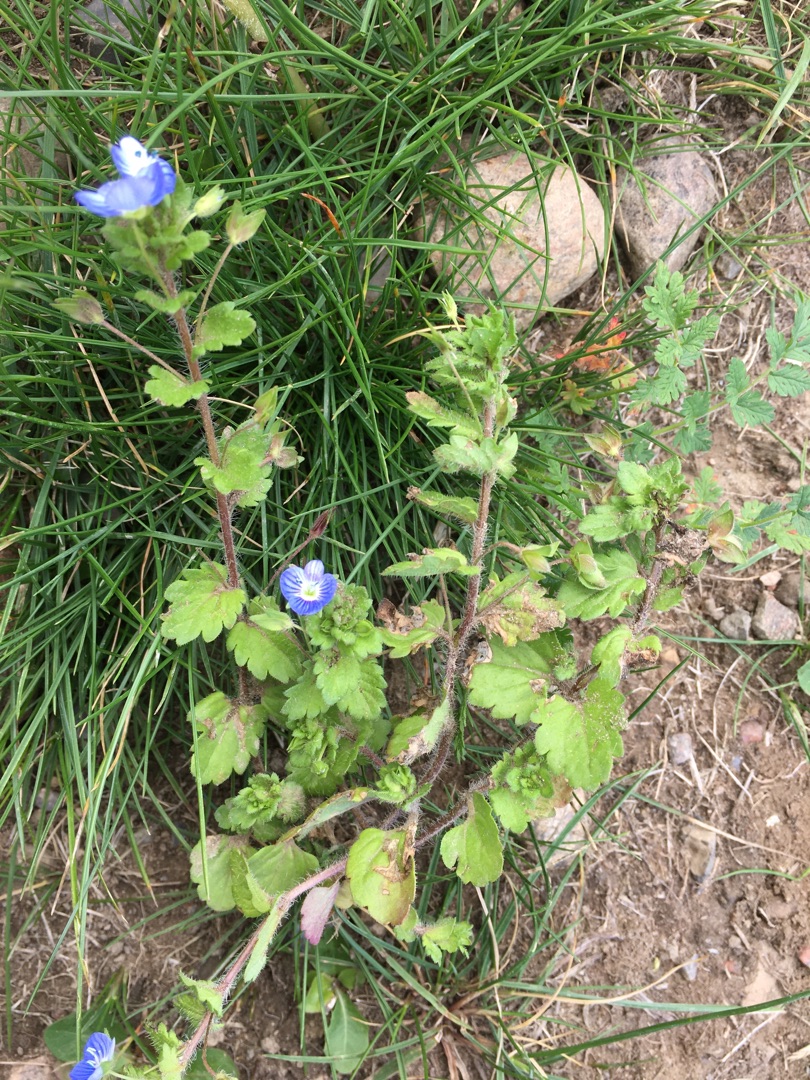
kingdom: Plantae
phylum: Tracheophyta
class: Magnoliopsida
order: Lamiales
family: Plantaginaceae
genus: Veronica
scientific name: Veronica persica
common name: Storkronet ærenpris
